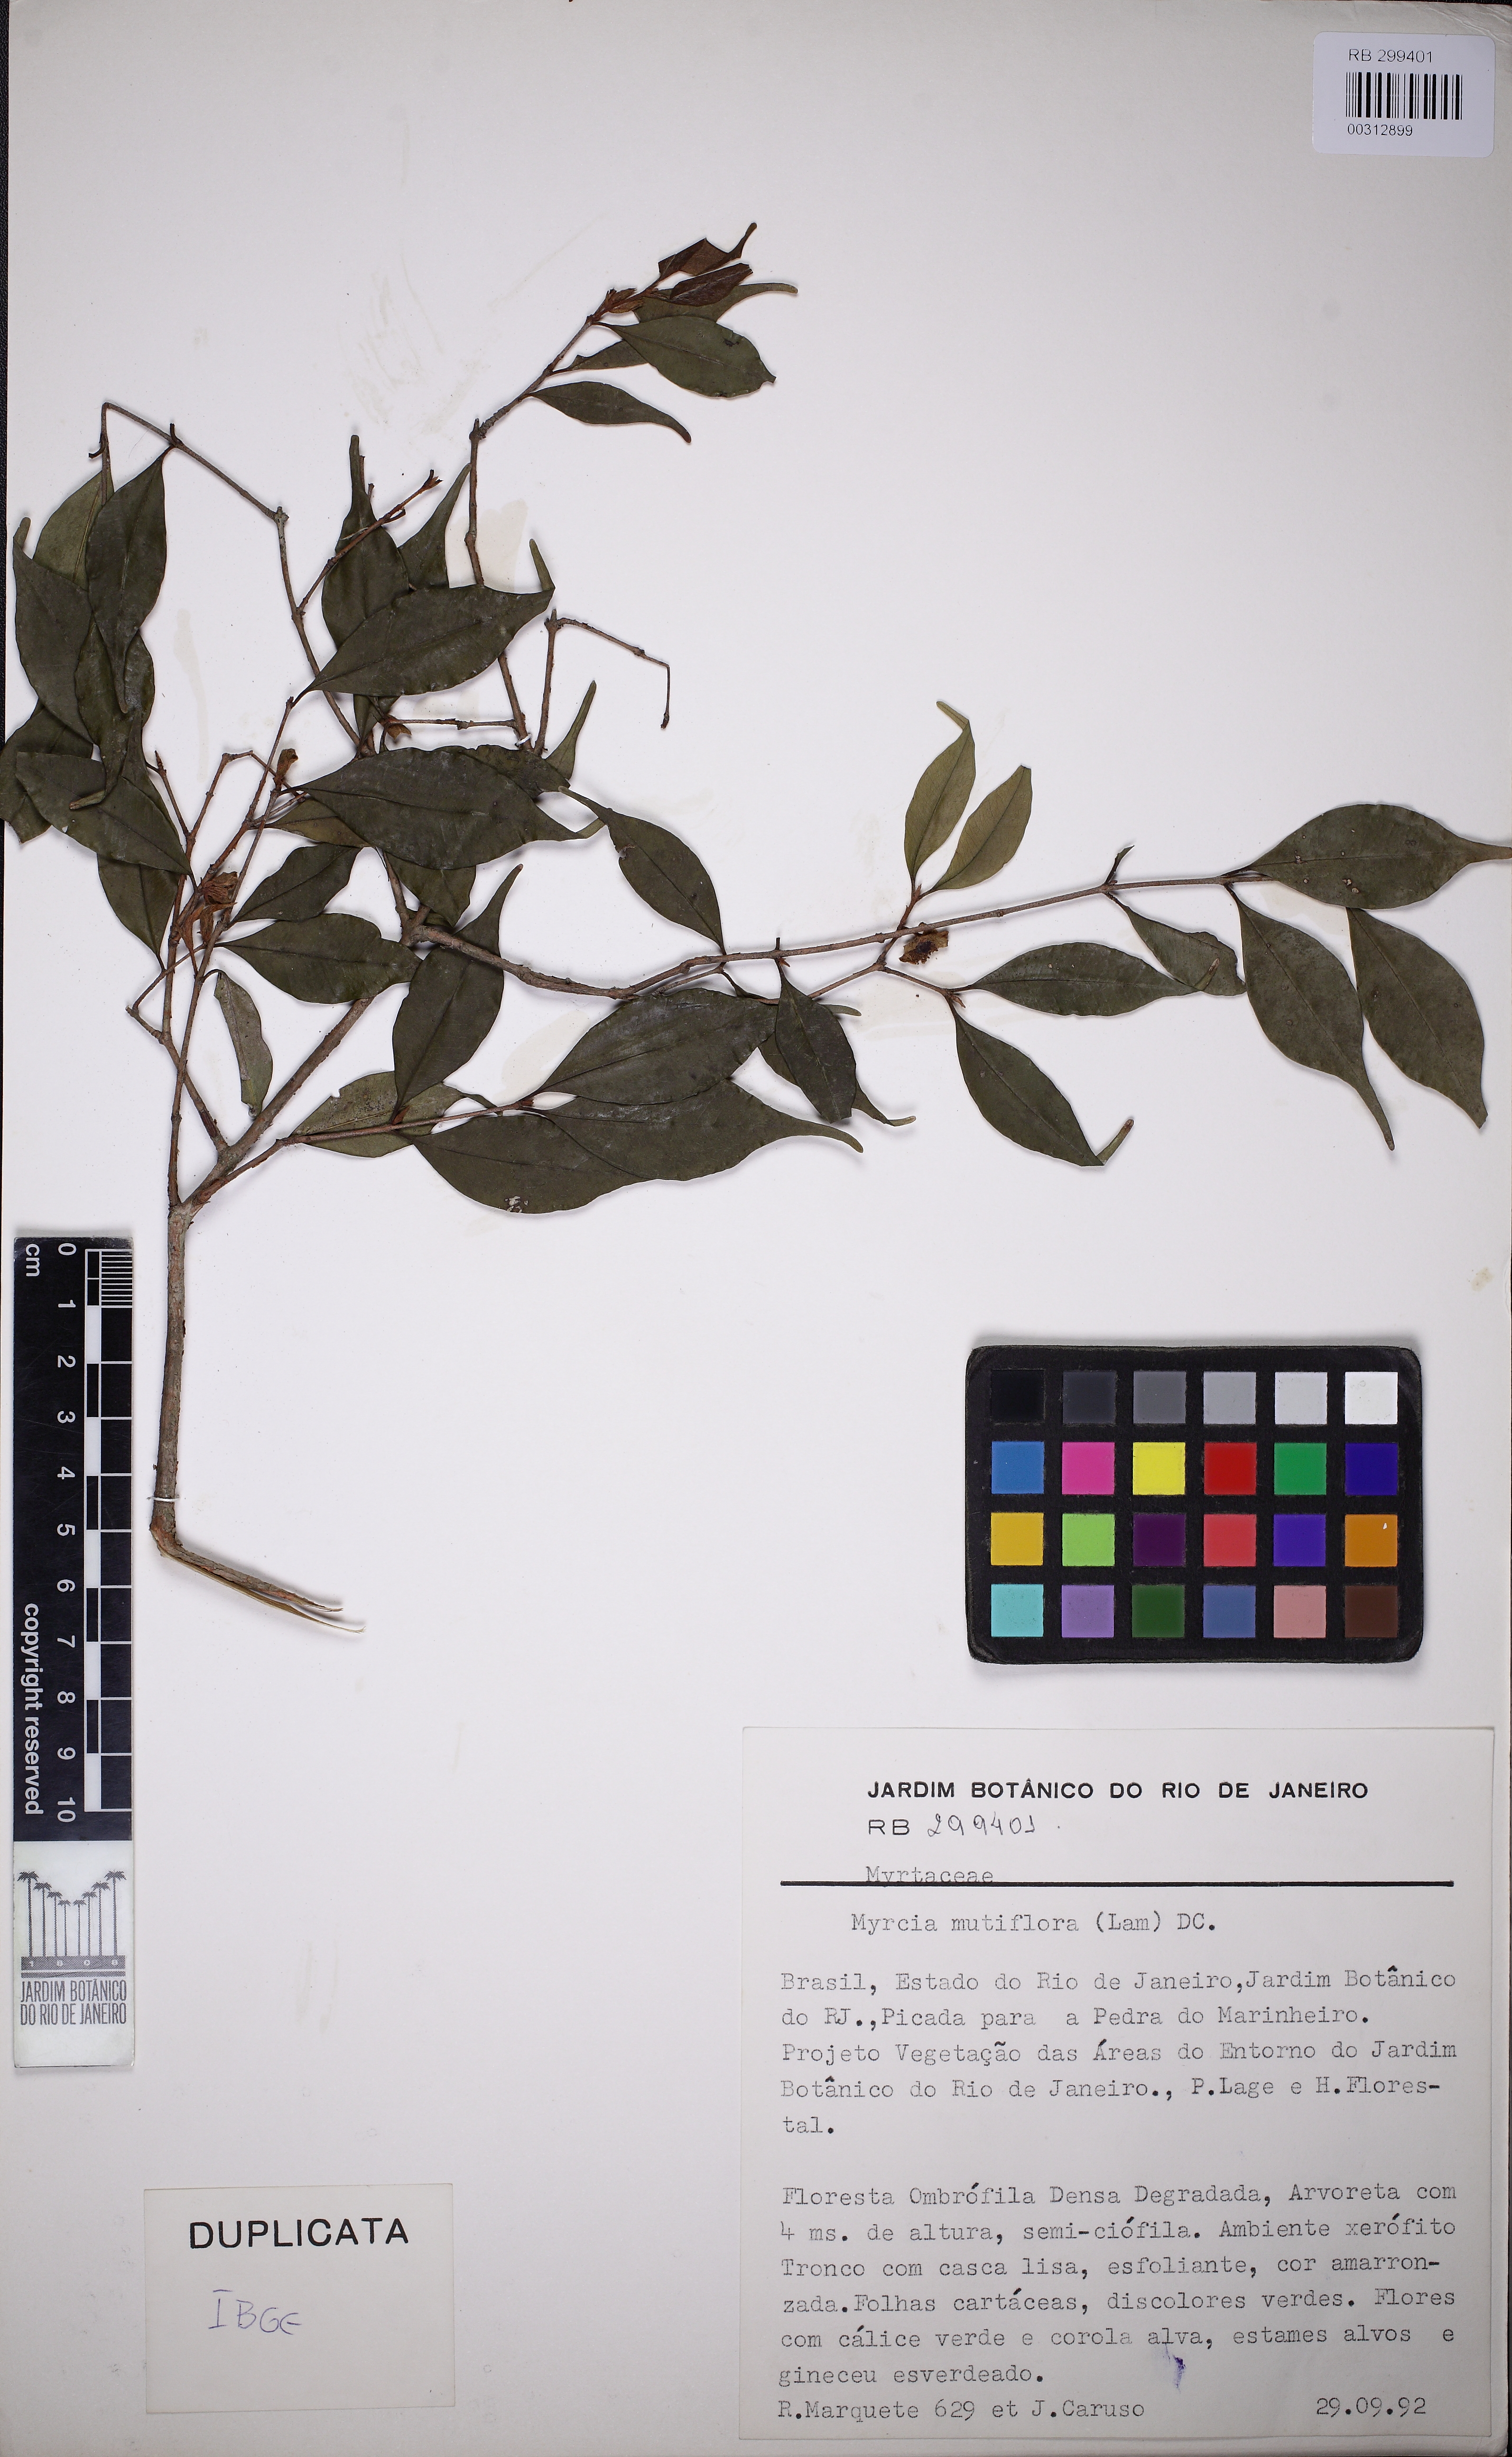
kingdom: Plantae
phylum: Tracheophyta
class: Magnoliopsida
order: Myrtales
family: Myrtaceae
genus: Eugenia
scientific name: Eugenia grazielae
